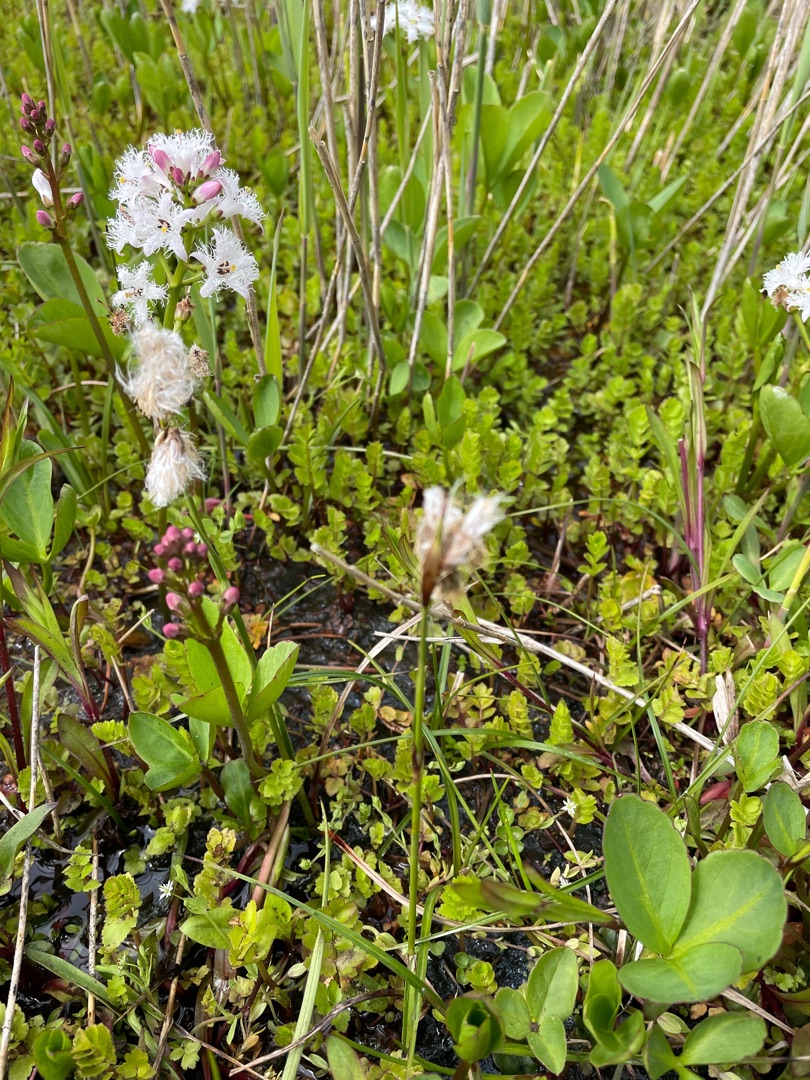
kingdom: Plantae
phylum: Tracheophyta
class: Liliopsida
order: Poales
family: Cyperaceae
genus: Eriophorum
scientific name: Eriophorum angustifolium
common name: Smalbladet kæruld
